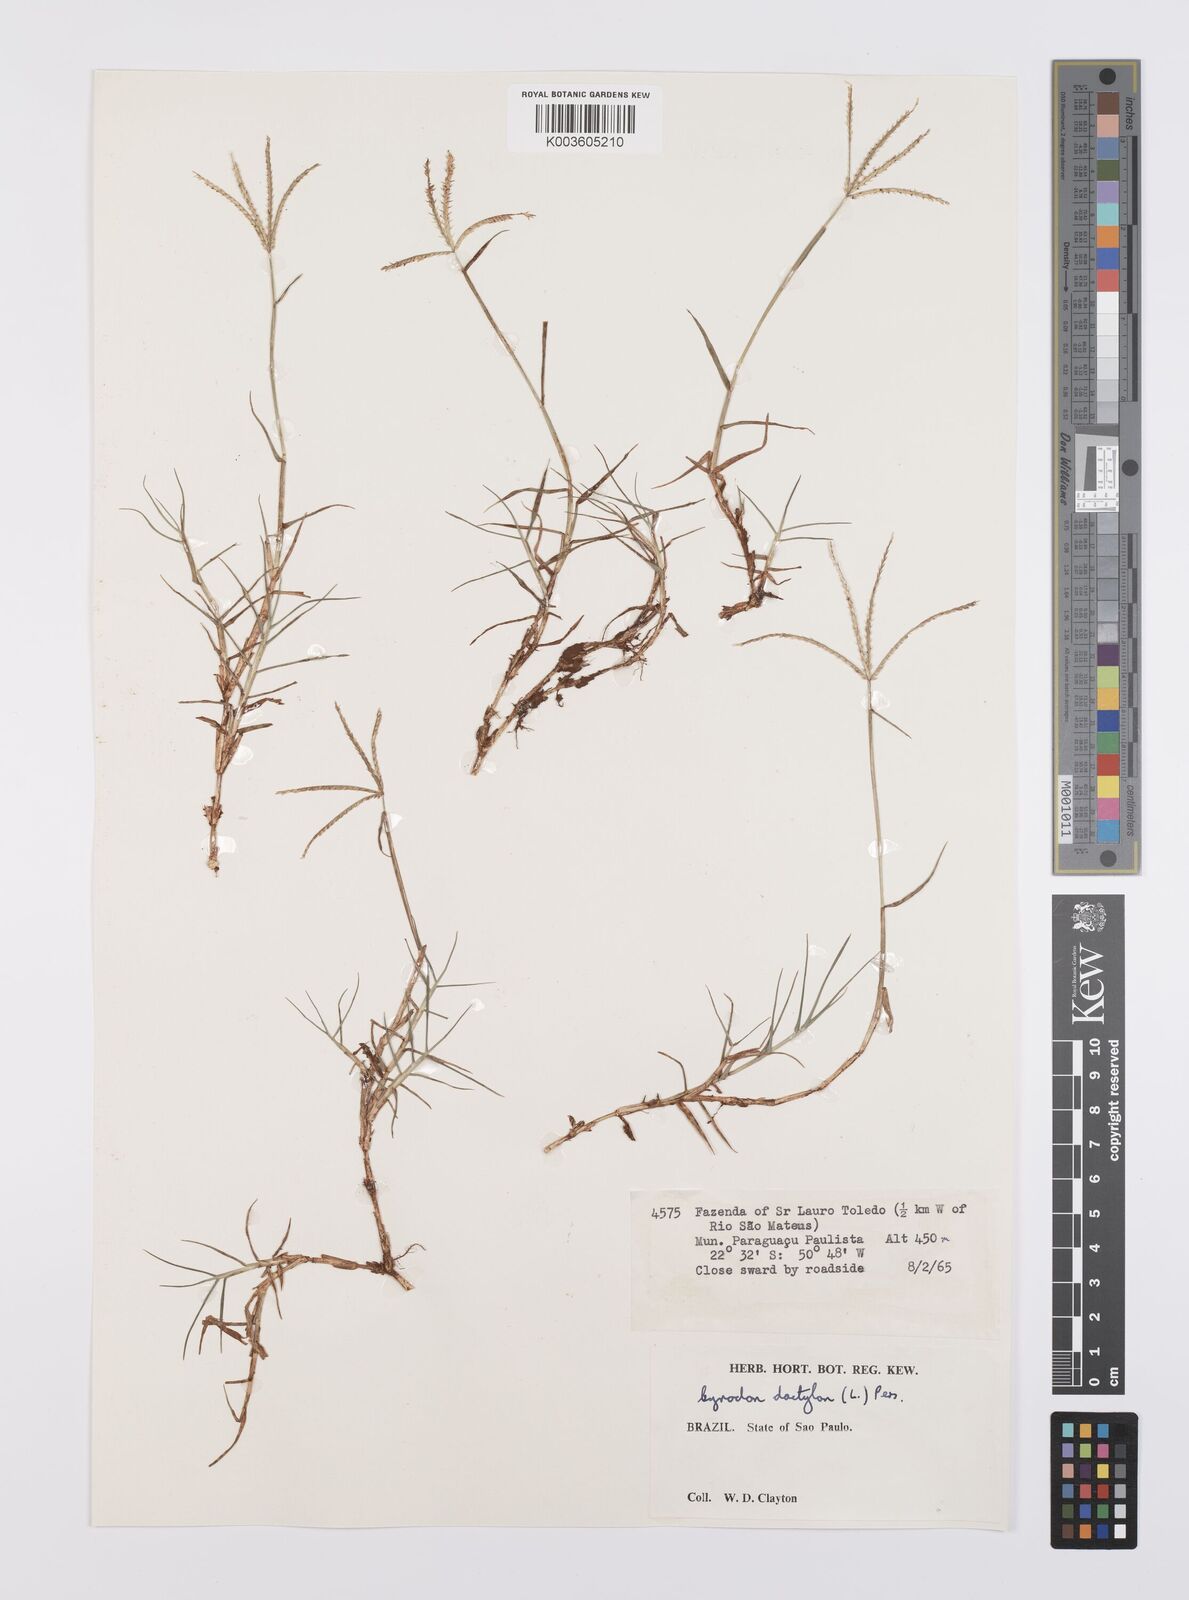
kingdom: Plantae
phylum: Tracheophyta
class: Liliopsida
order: Poales
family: Poaceae
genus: Cynodon
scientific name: Cynodon dactylon
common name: Bermuda grass
